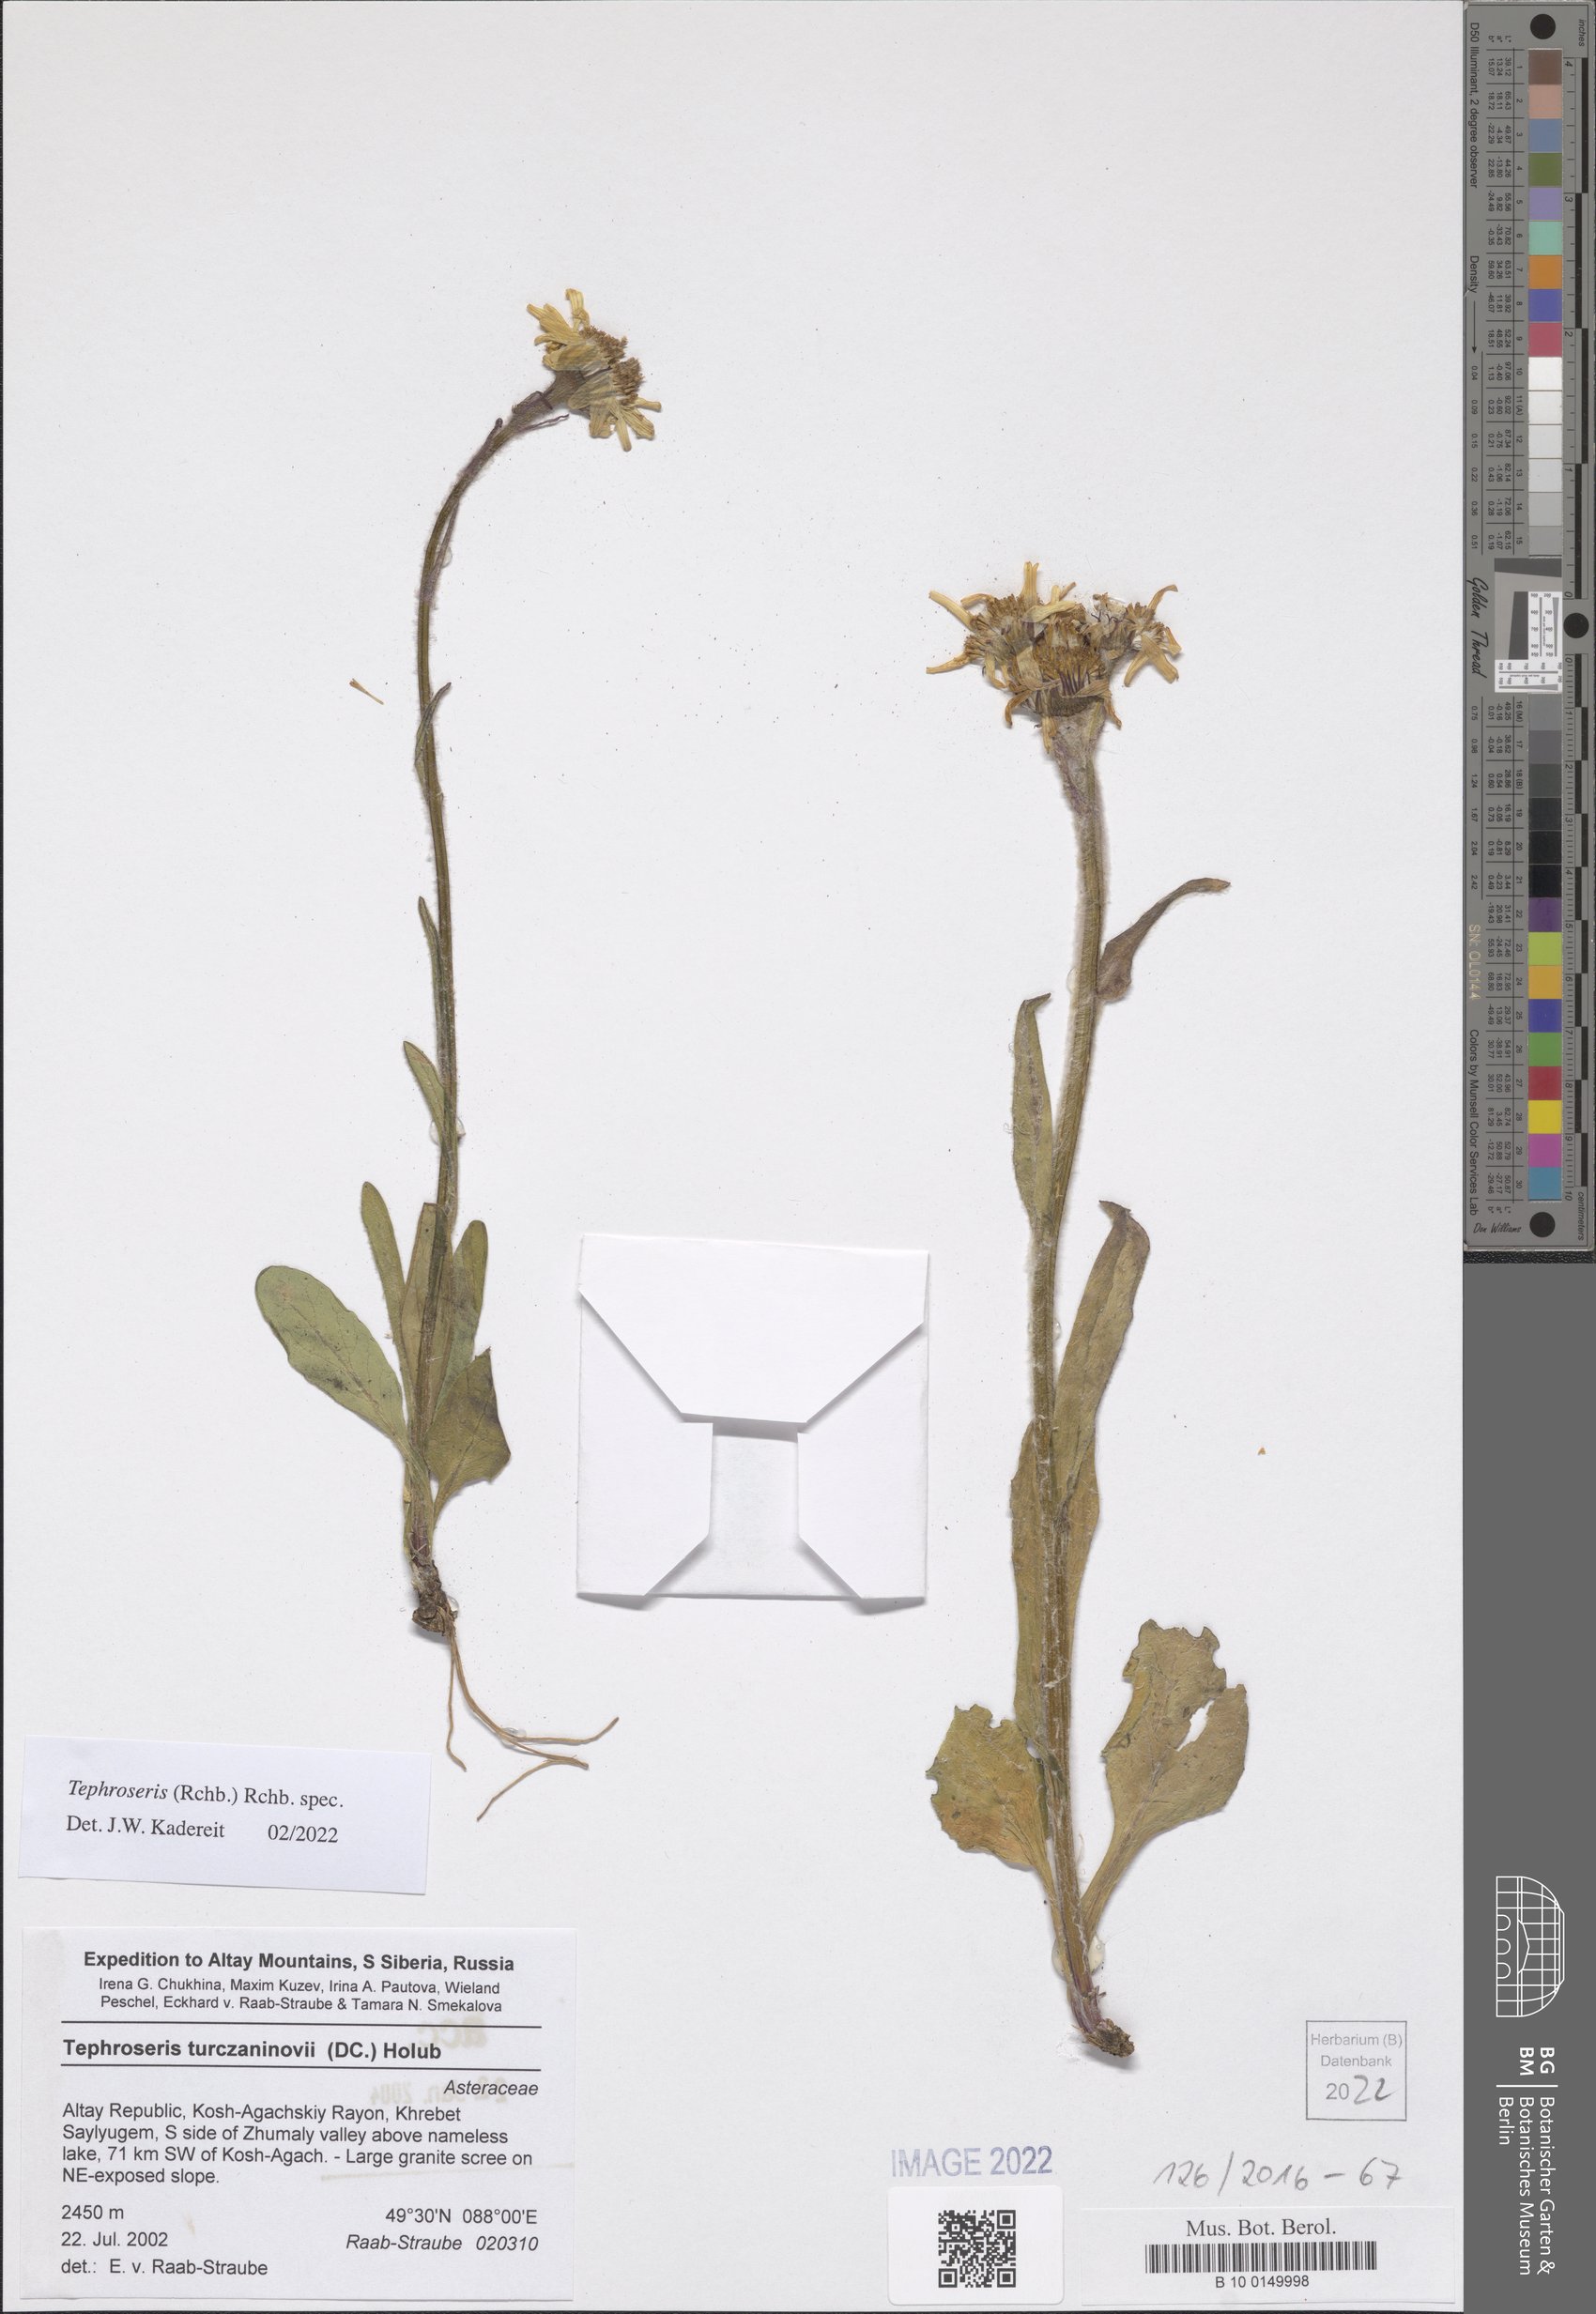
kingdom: Plantae
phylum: Tracheophyta
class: Magnoliopsida
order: Asterales
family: Asteraceae
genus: Tephroseris
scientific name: Tephroseris
